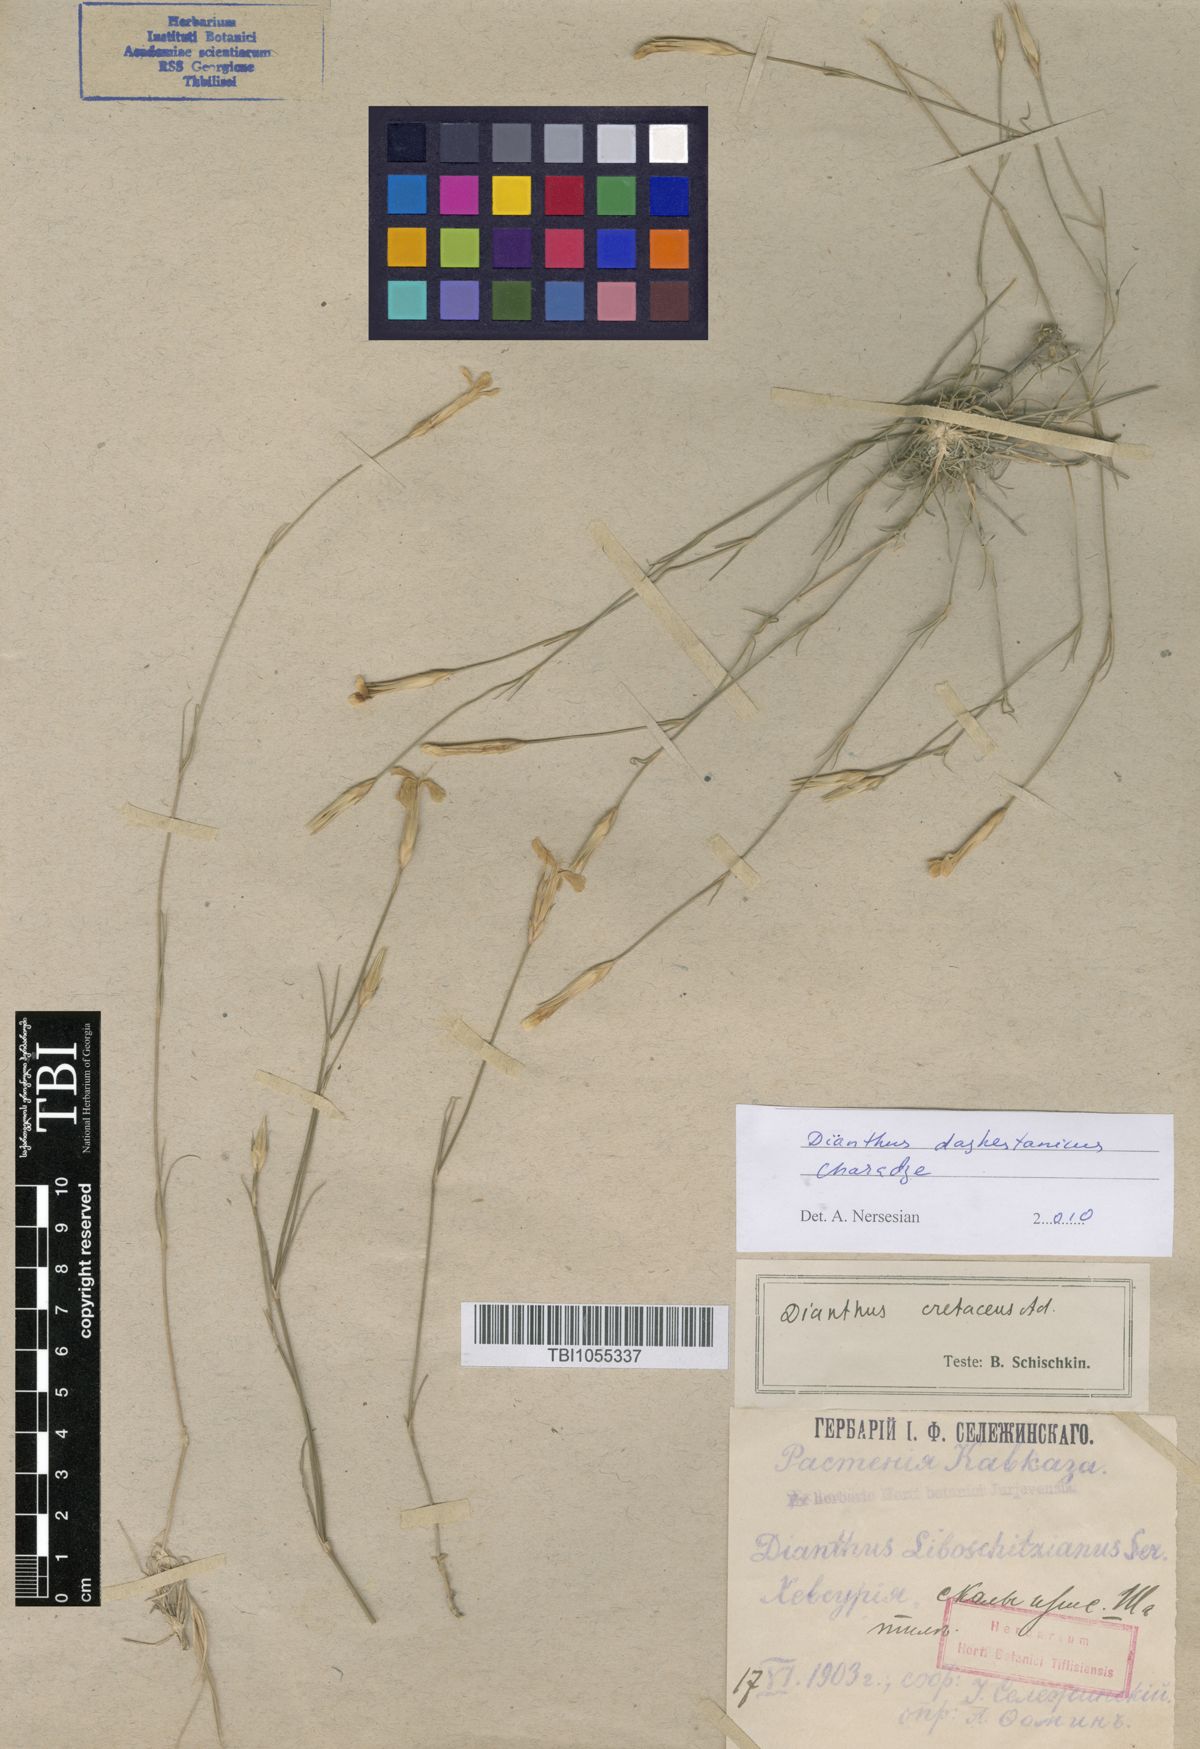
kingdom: Plantae
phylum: Tracheophyta
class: Magnoliopsida
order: Caryophyllales
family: Caryophyllaceae
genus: Dianthus
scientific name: Dianthus cretaceus
